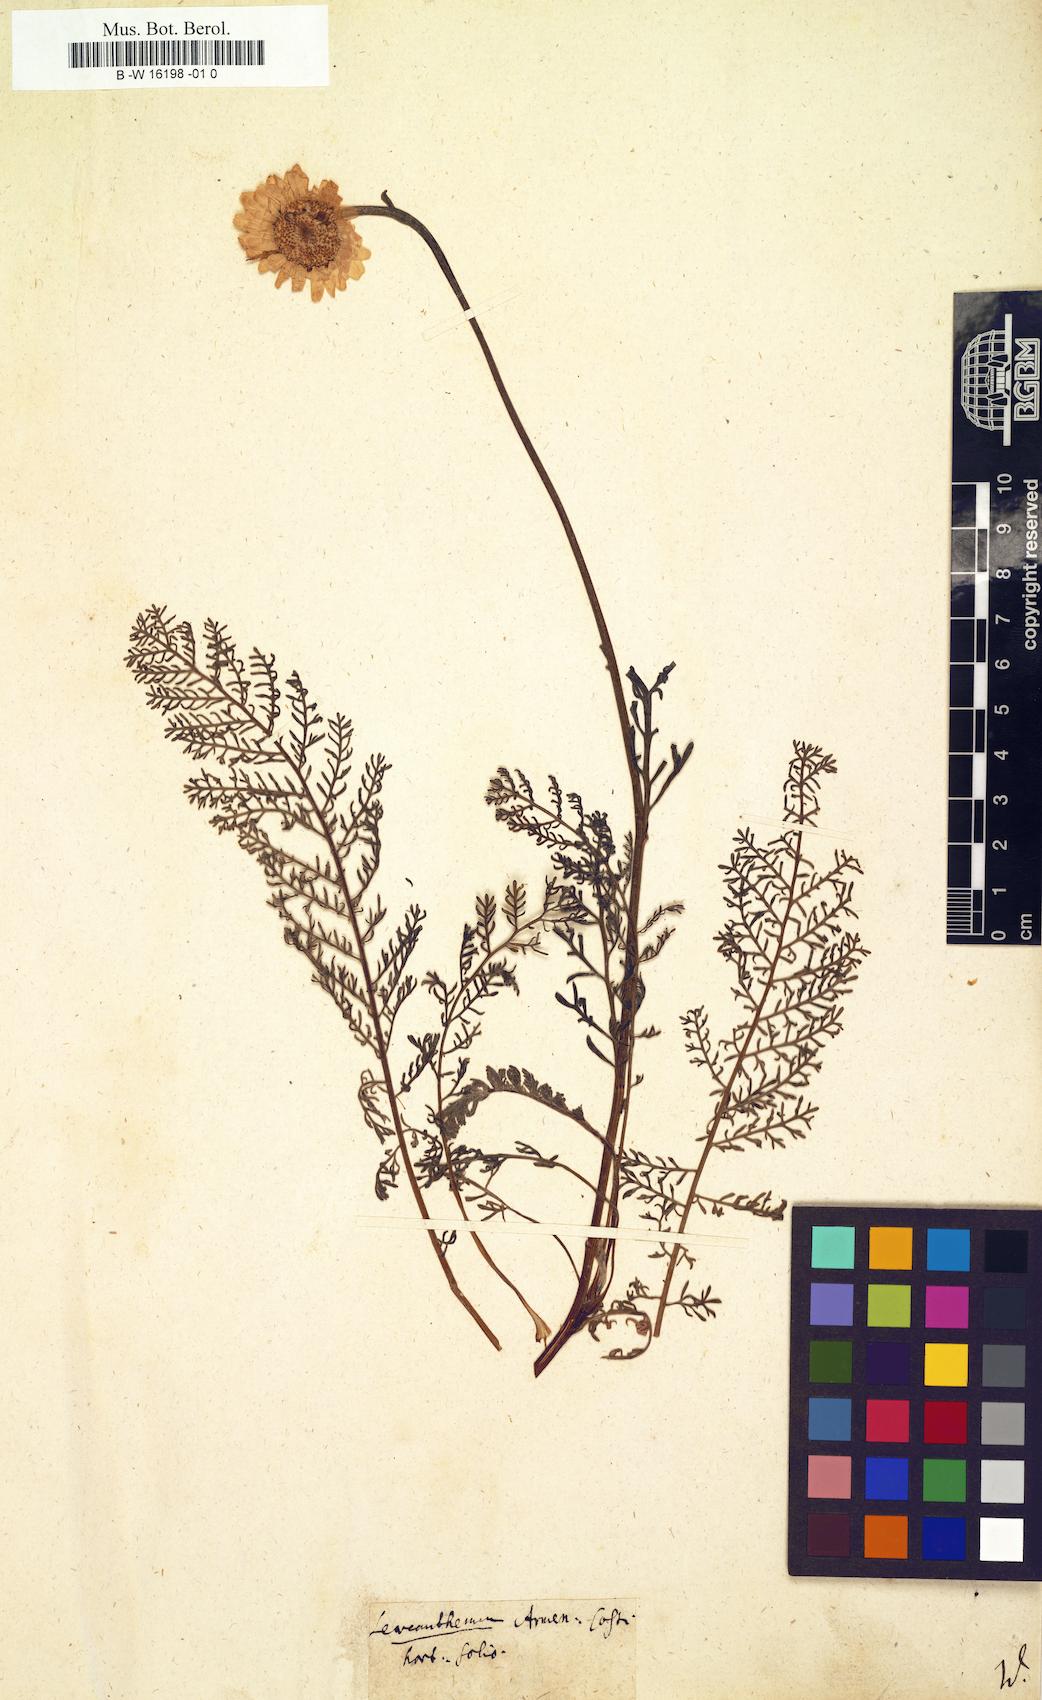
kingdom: Plantae
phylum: Tracheophyta
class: Magnoliopsida
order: Asterales
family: Asteraceae
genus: Matricaria
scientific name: Matricaria
